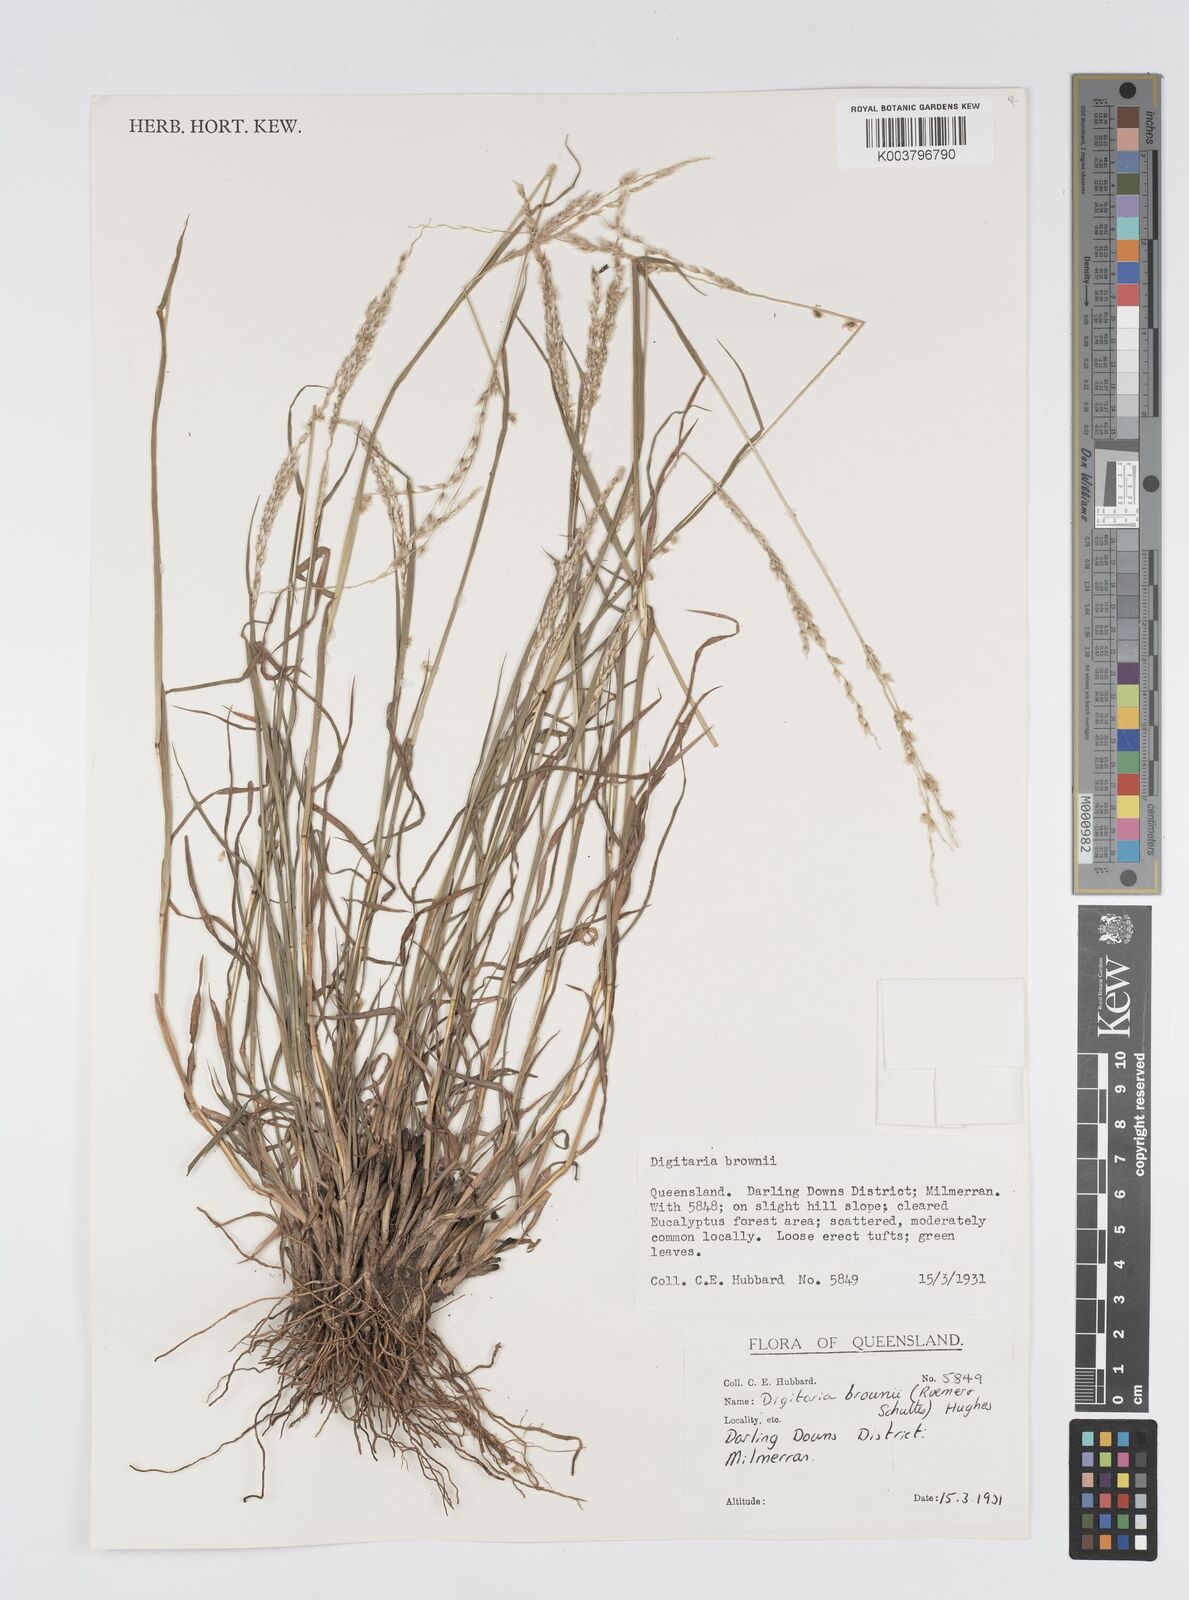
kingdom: Plantae
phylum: Tracheophyta
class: Liliopsida
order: Poales
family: Poaceae
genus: Digitaria
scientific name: Digitaria brownii
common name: Cotton grass
